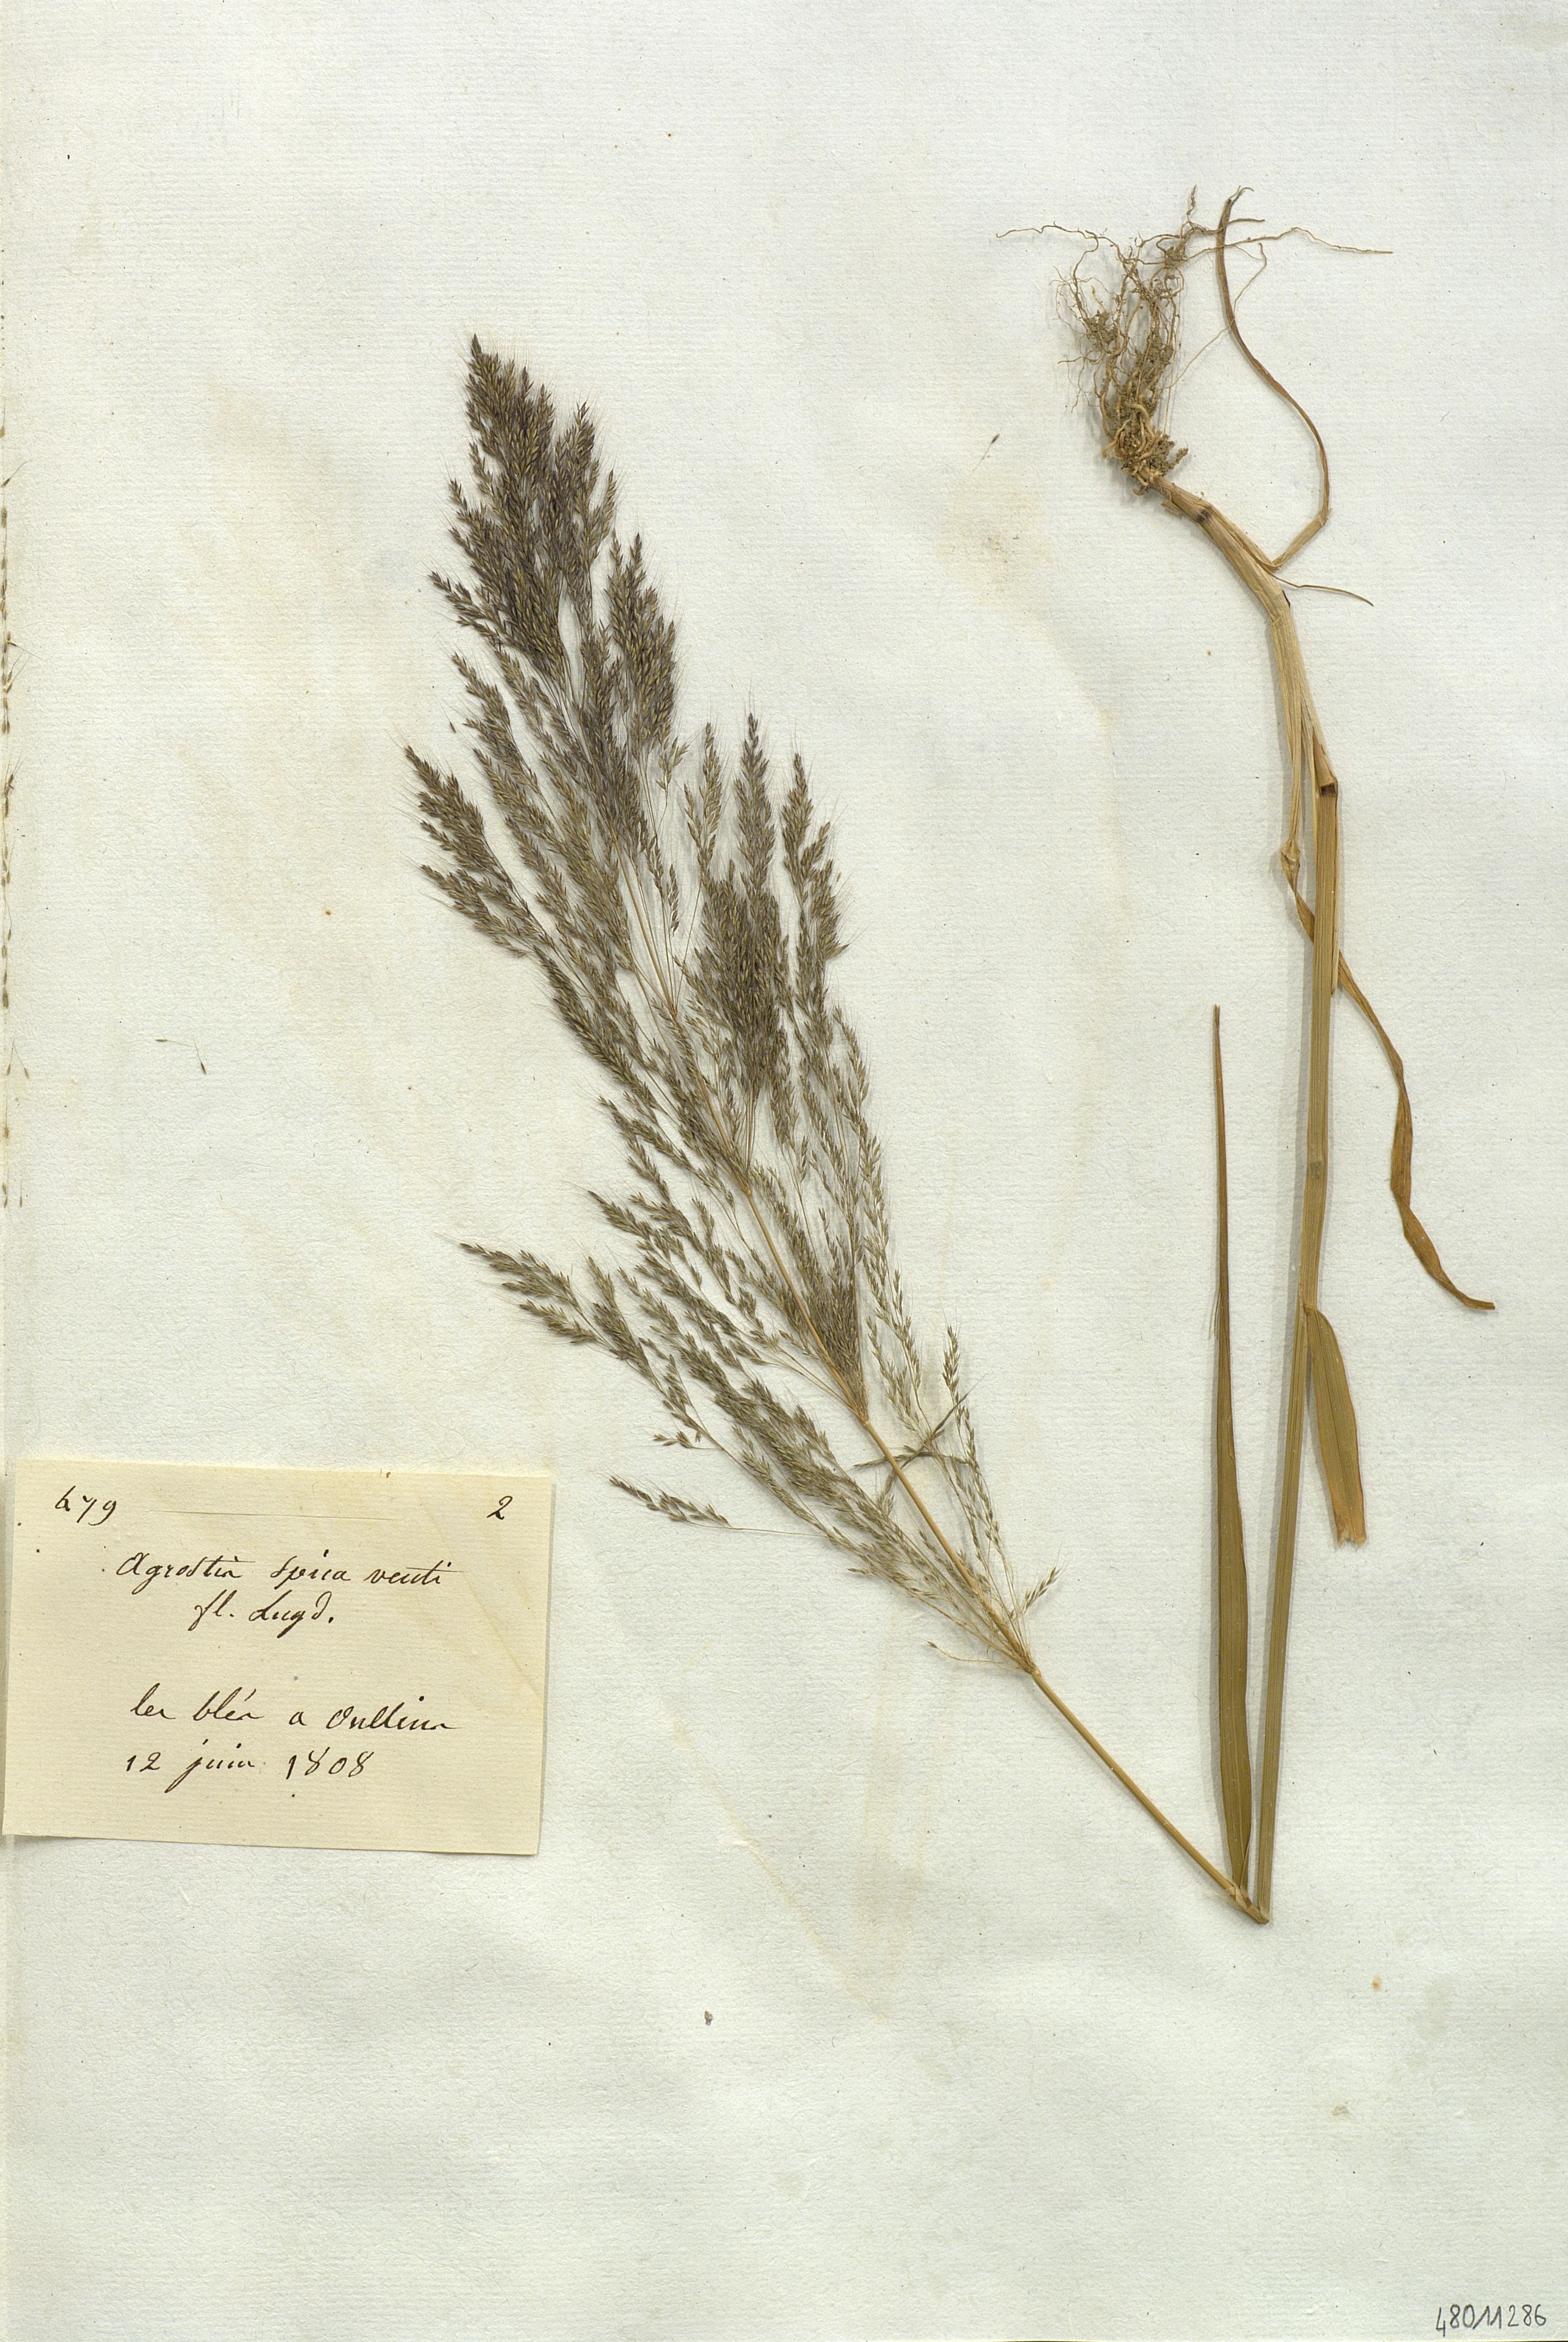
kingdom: Plantae
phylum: Tracheophyta
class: Liliopsida
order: Poales
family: Poaceae
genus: Apera
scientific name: Apera spica-venti
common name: Loose silky-bent
